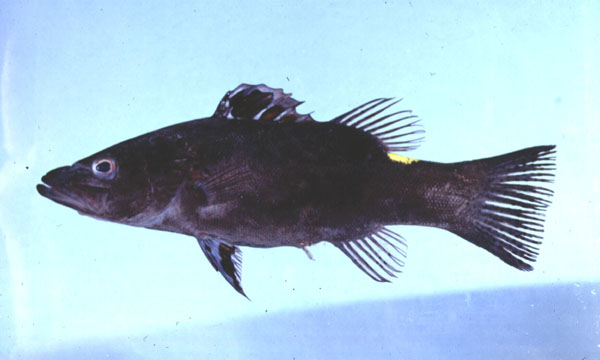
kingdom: Animalia
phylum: Chordata
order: Perciformes
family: Serranidae
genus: Belonoperca
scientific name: Belonoperca chabanaudi
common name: Arrowhead soapfish
